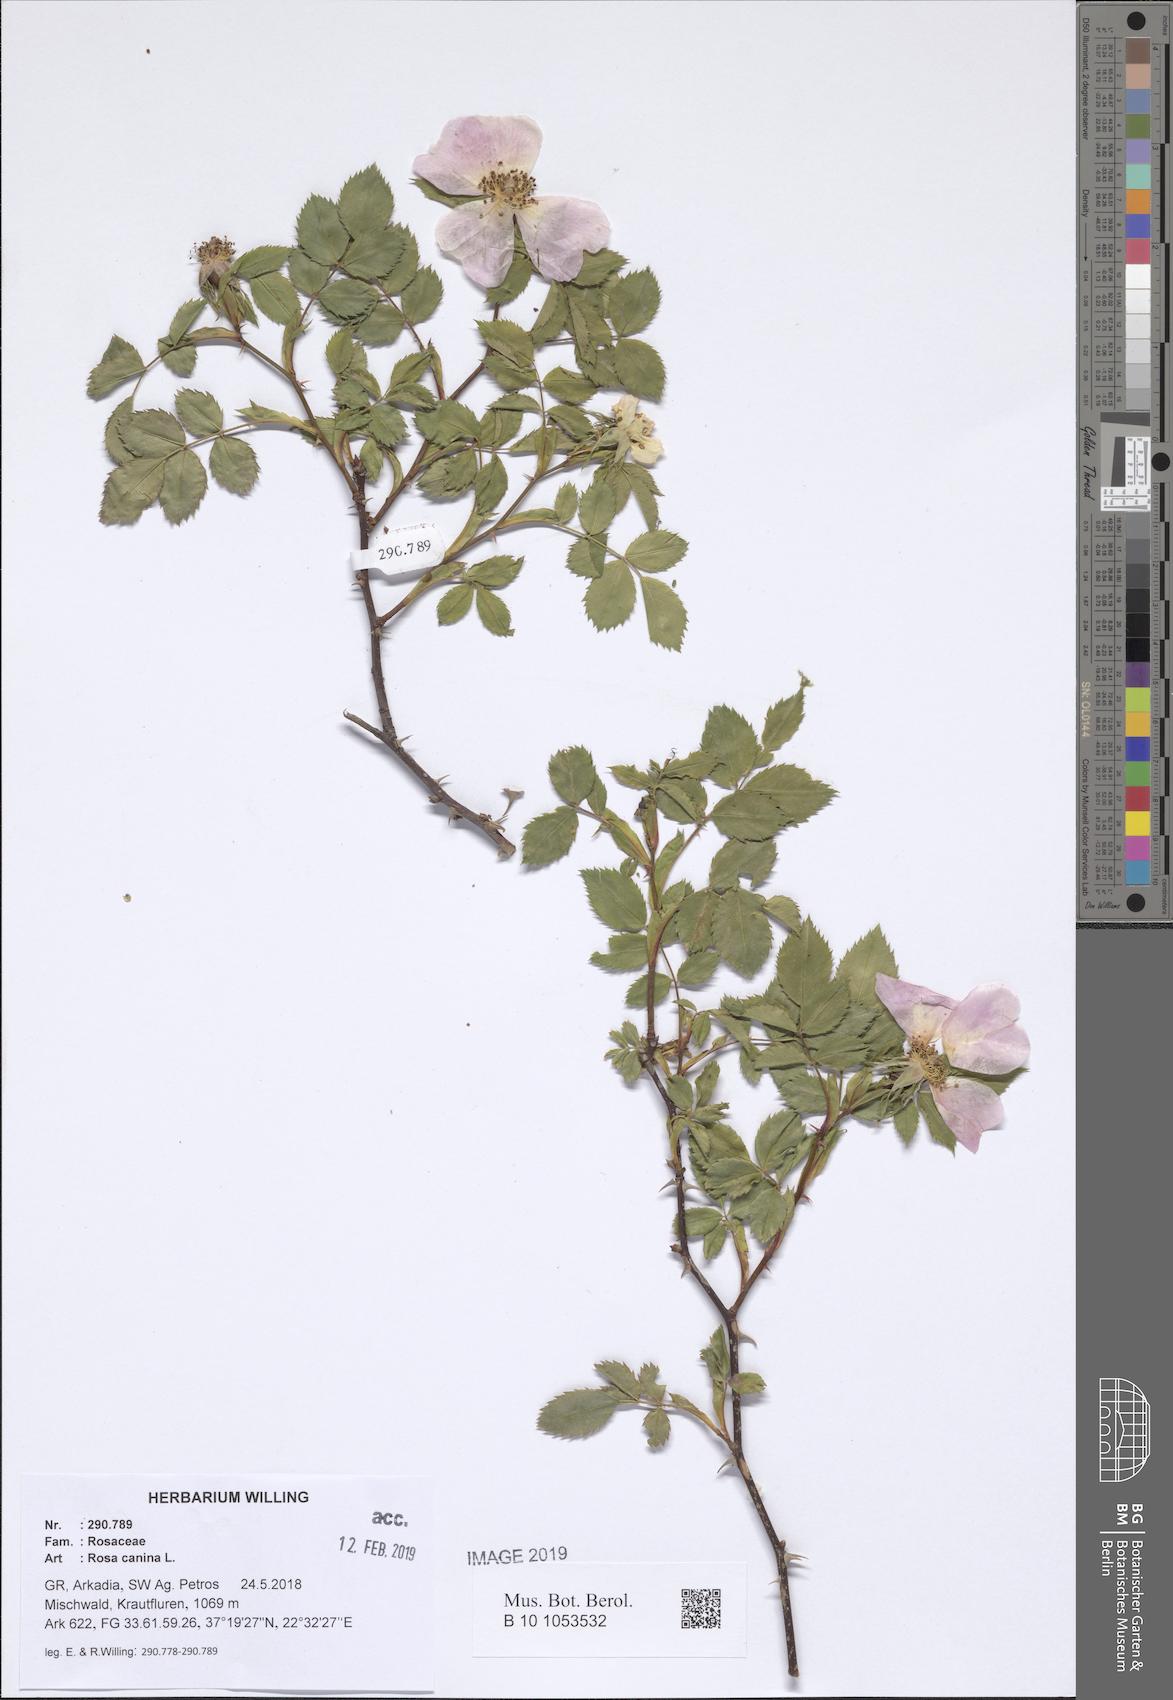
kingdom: Plantae
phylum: Tracheophyta
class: Magnoliopsida
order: Rosales
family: Rosaceae
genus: Rosa
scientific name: Rosa canina
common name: Dog rose
